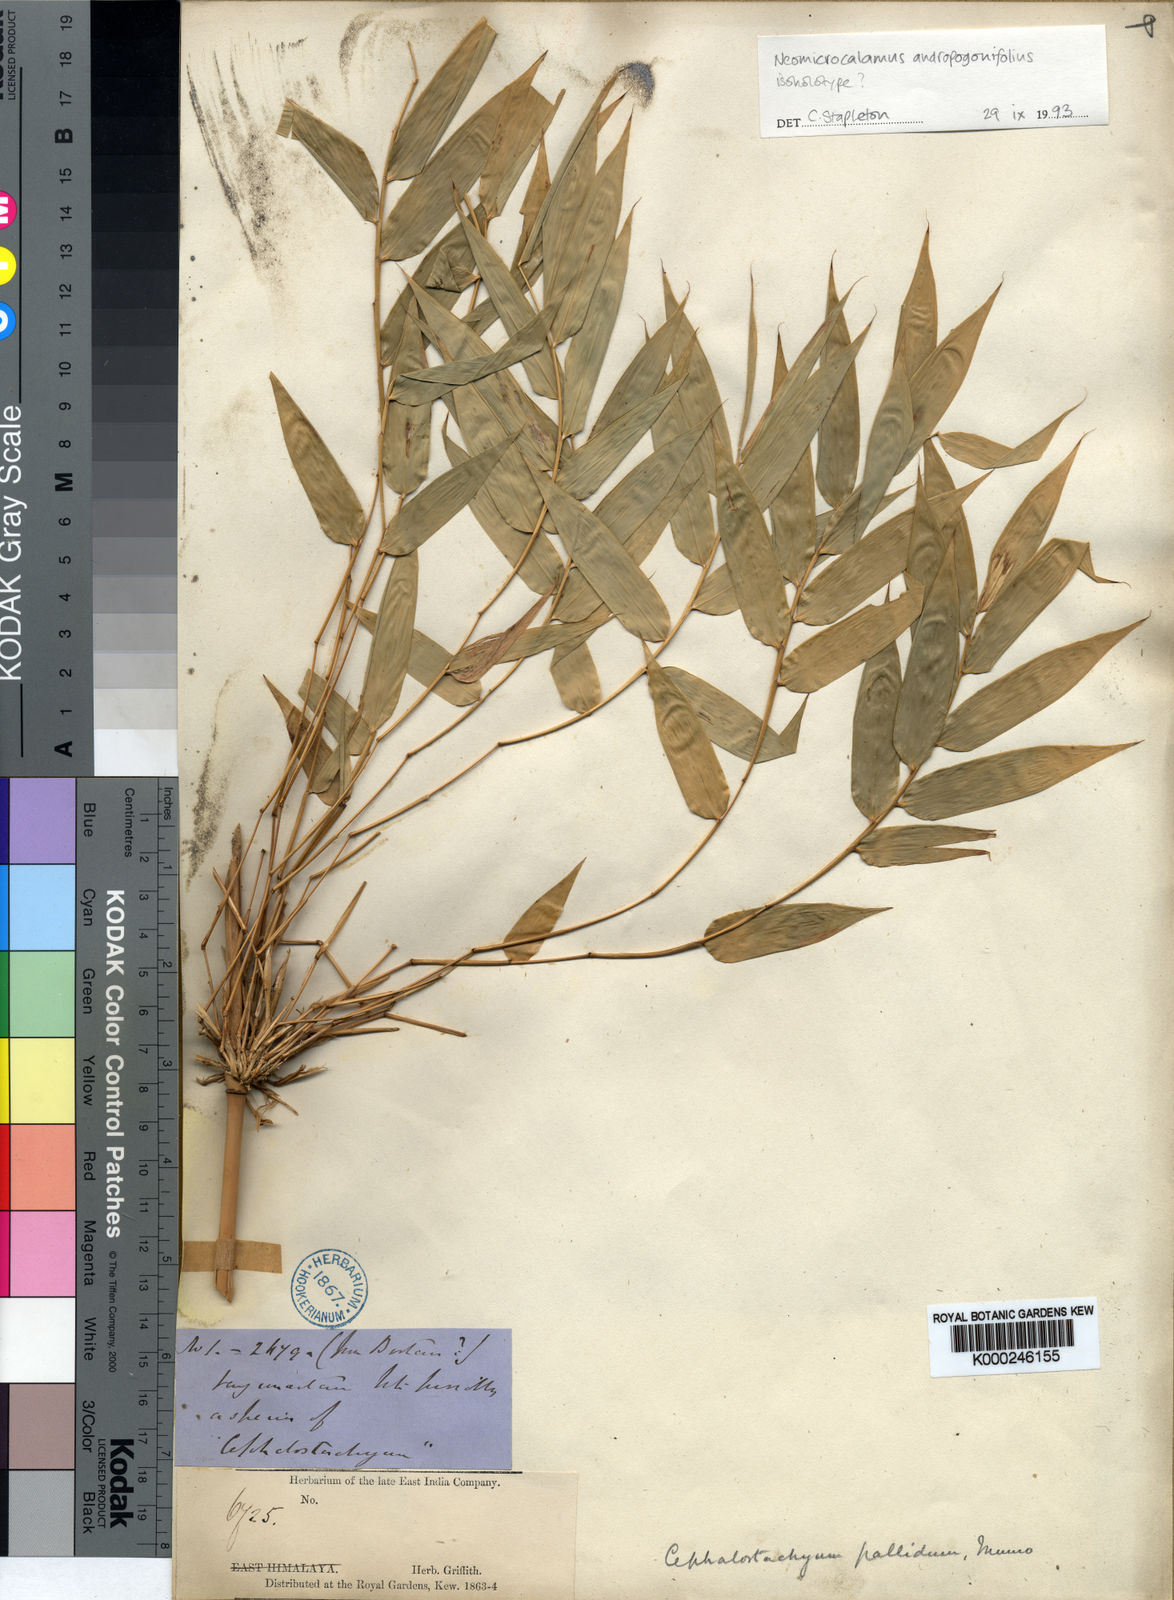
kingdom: Plantae
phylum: Tracheophyta
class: Liliopsida
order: Poales
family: Poaceae
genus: Neomicrocalamus
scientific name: Neomicrocalamus andropogonifolius
